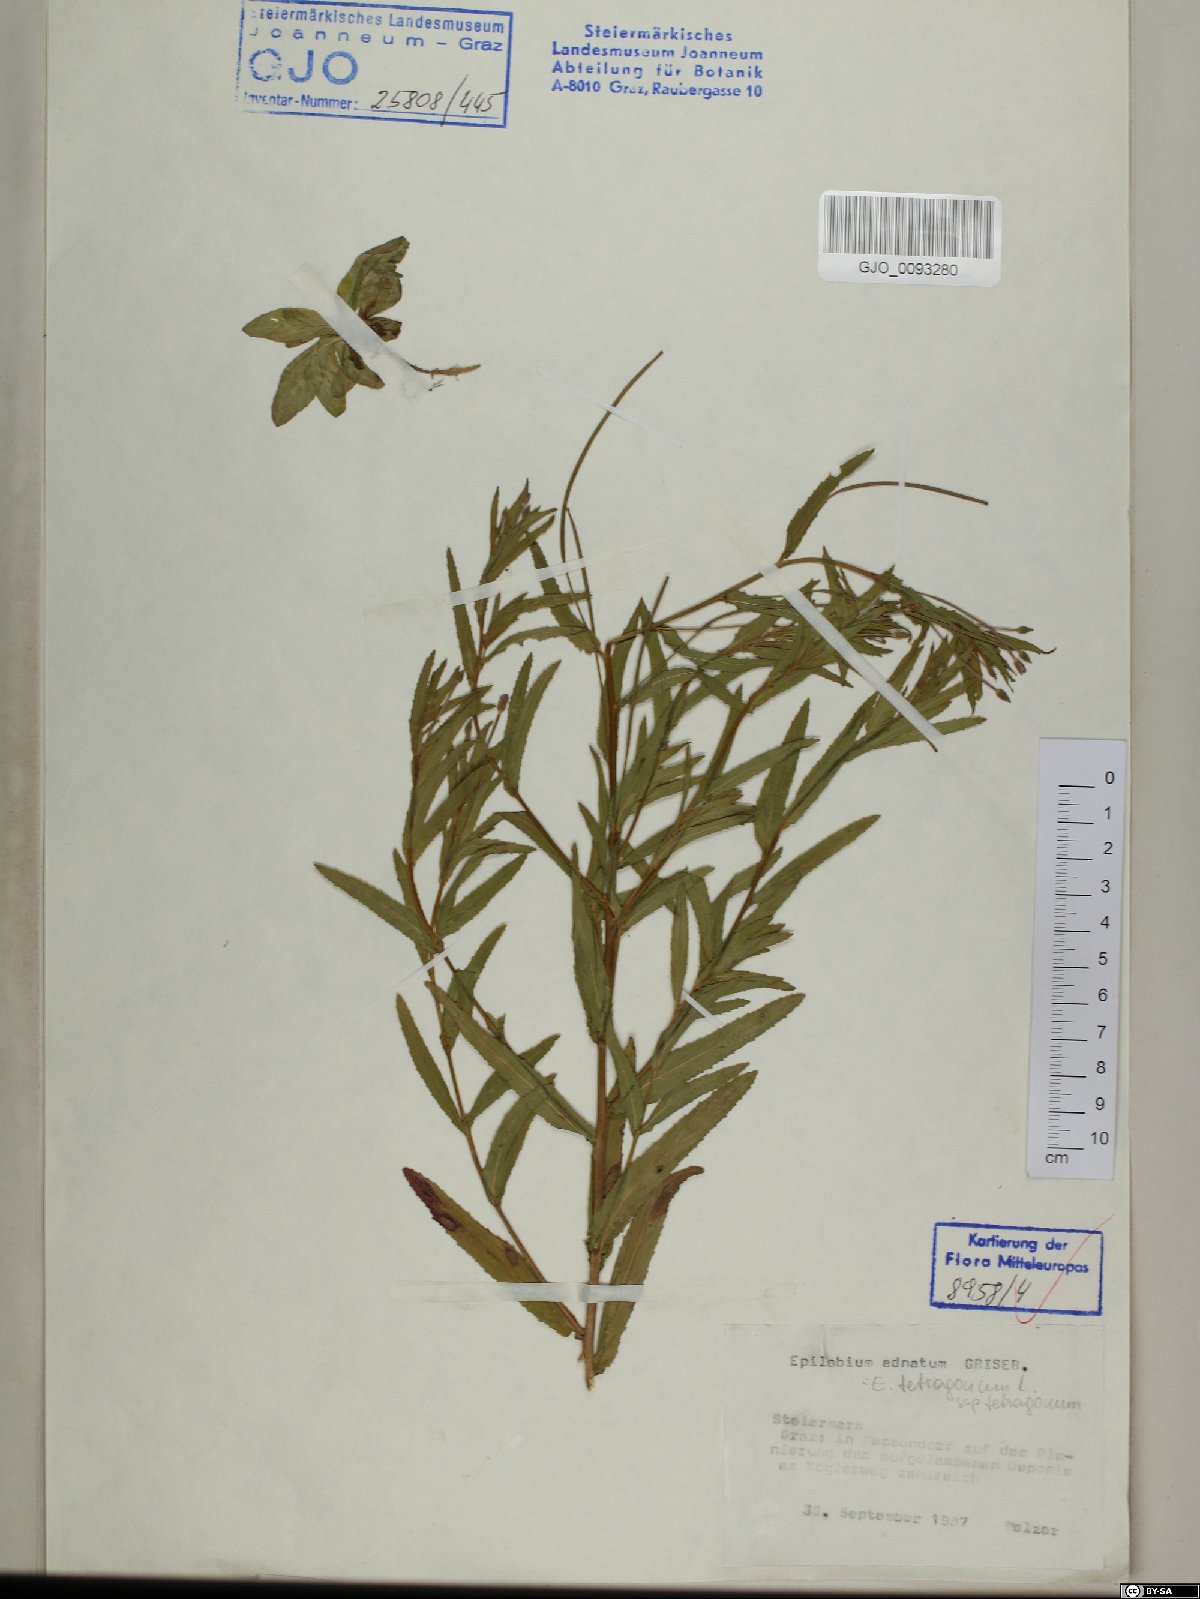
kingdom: Plantae
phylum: Tracheophyta
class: Magnoliopsida
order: Myrtales
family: Onagraceae
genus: Epilobium
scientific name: Epilobium tetragonum
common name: Square-stemmed willowherb
